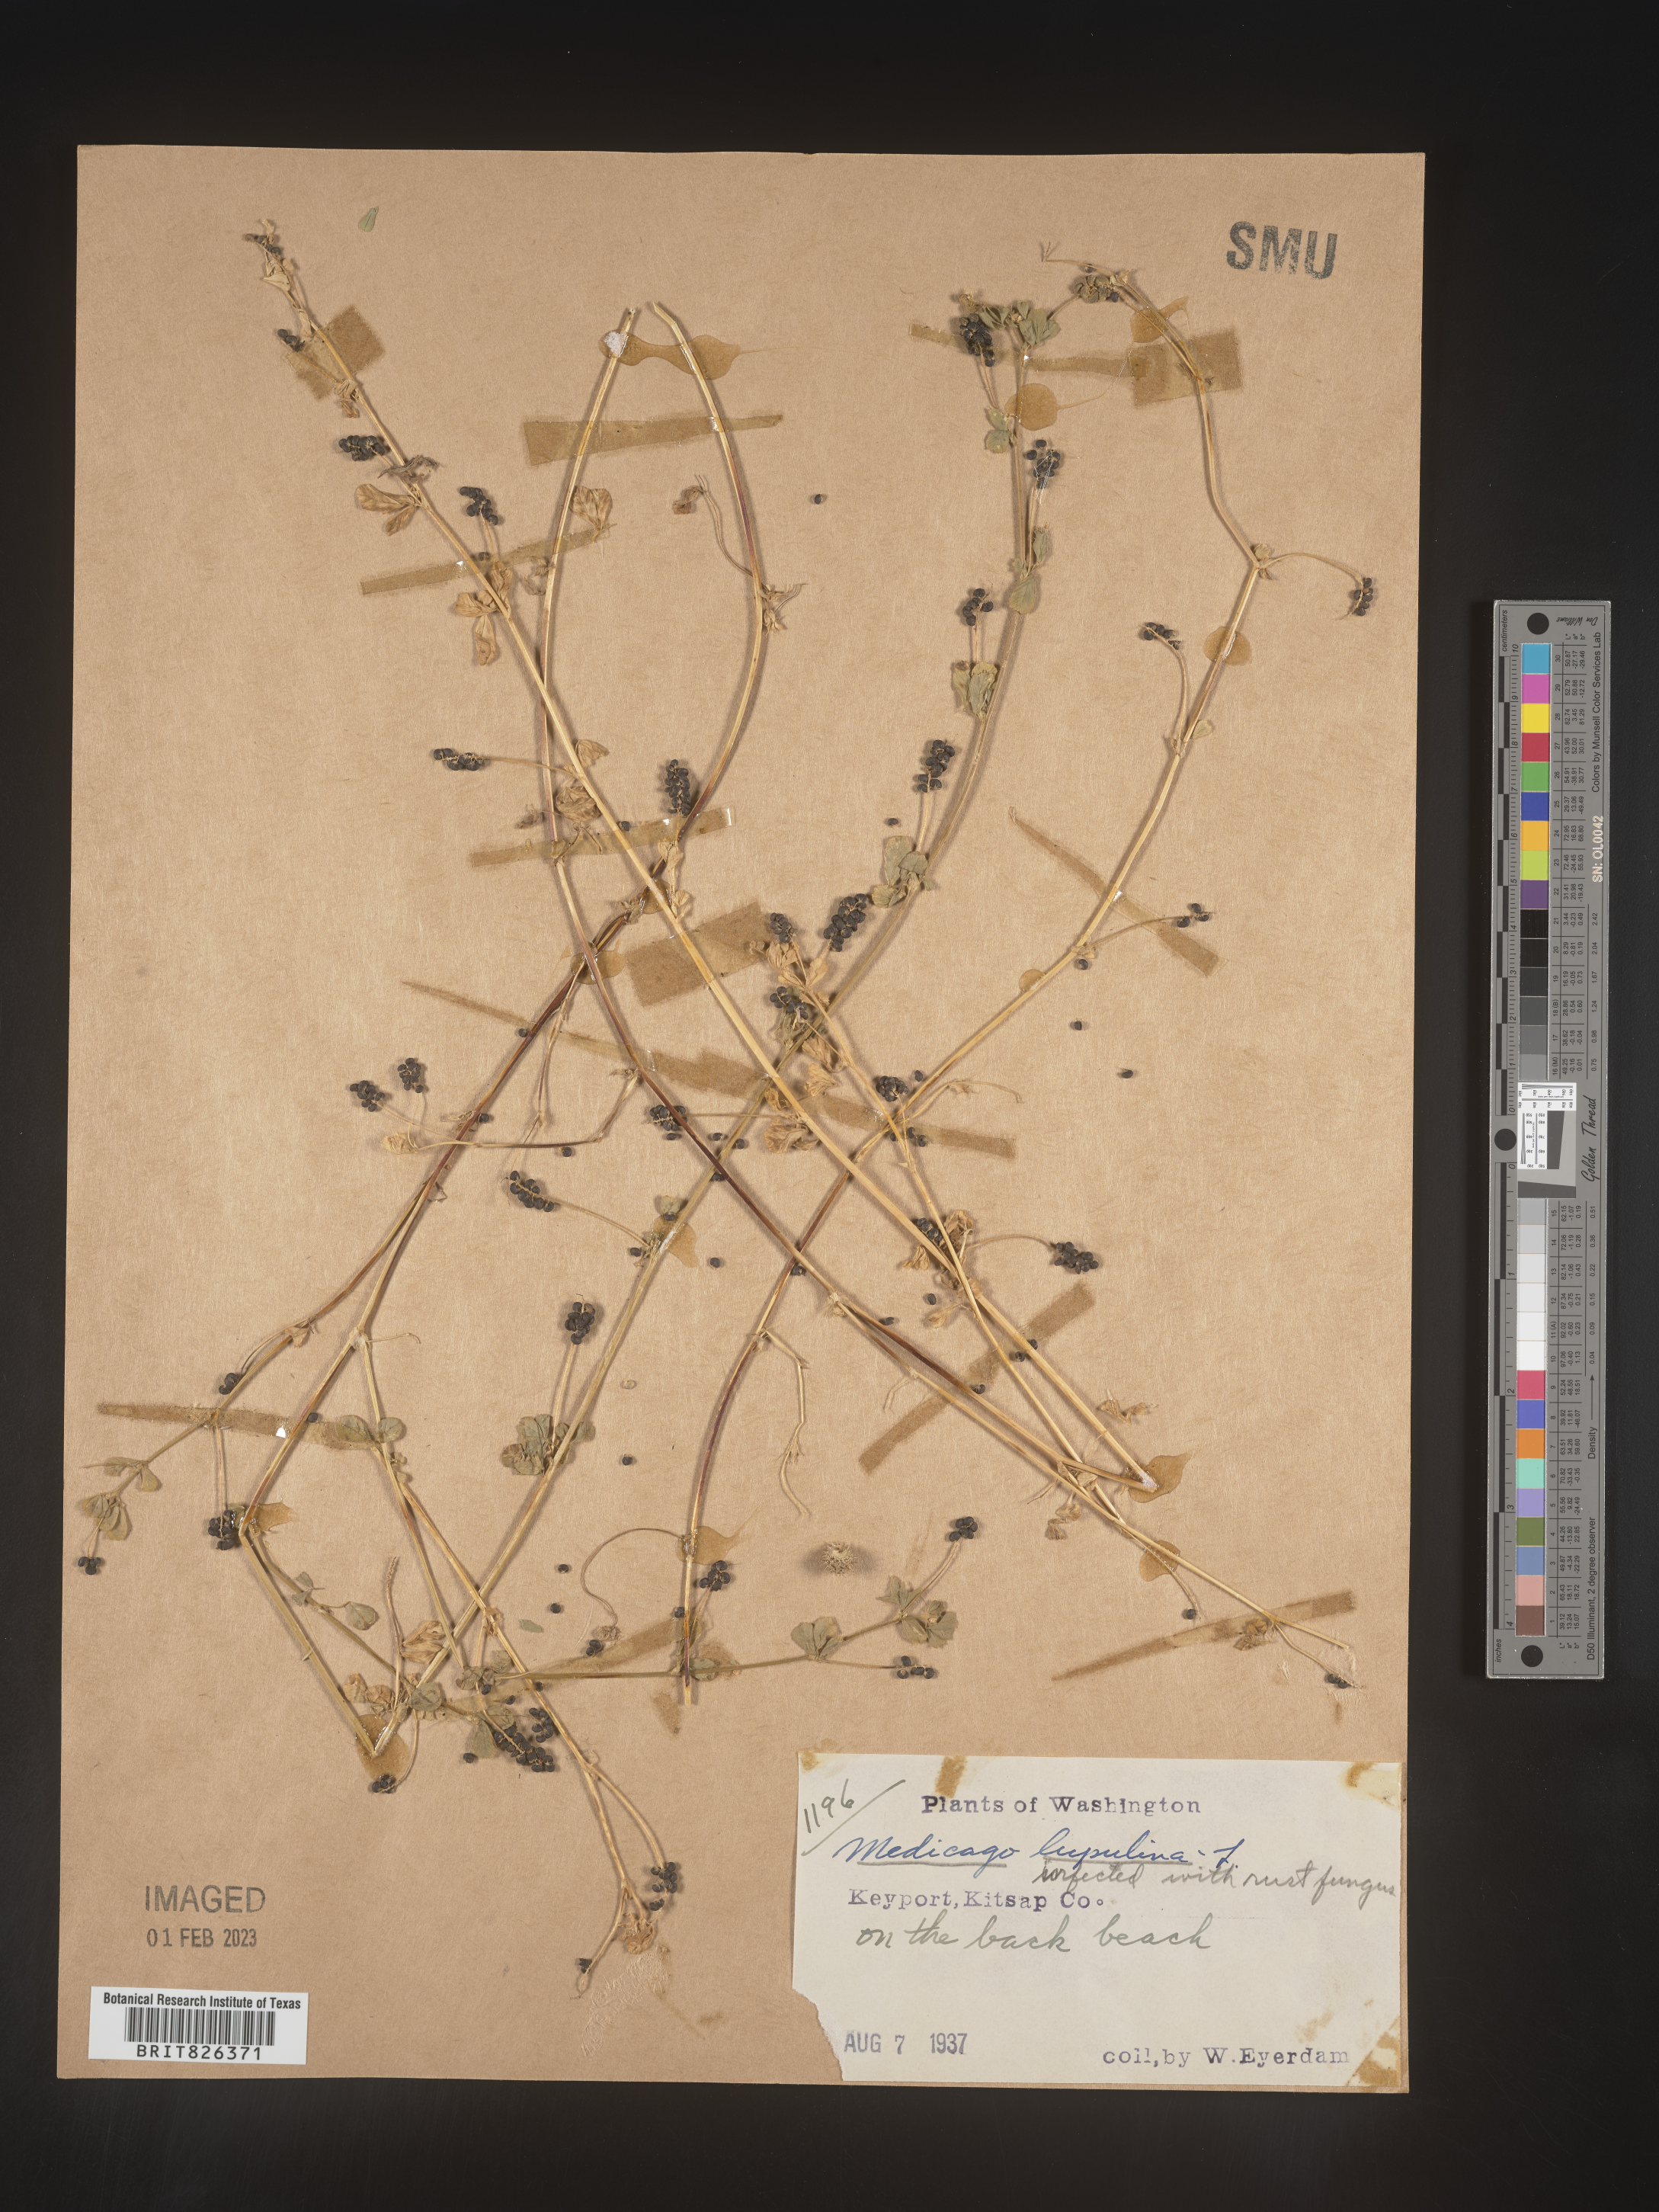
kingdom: Plantae
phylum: Tracheophyta
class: Magnoliopsida
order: Fabales
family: Fabaceae
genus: Medicago
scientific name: Medicago lupulina
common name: Black medick
